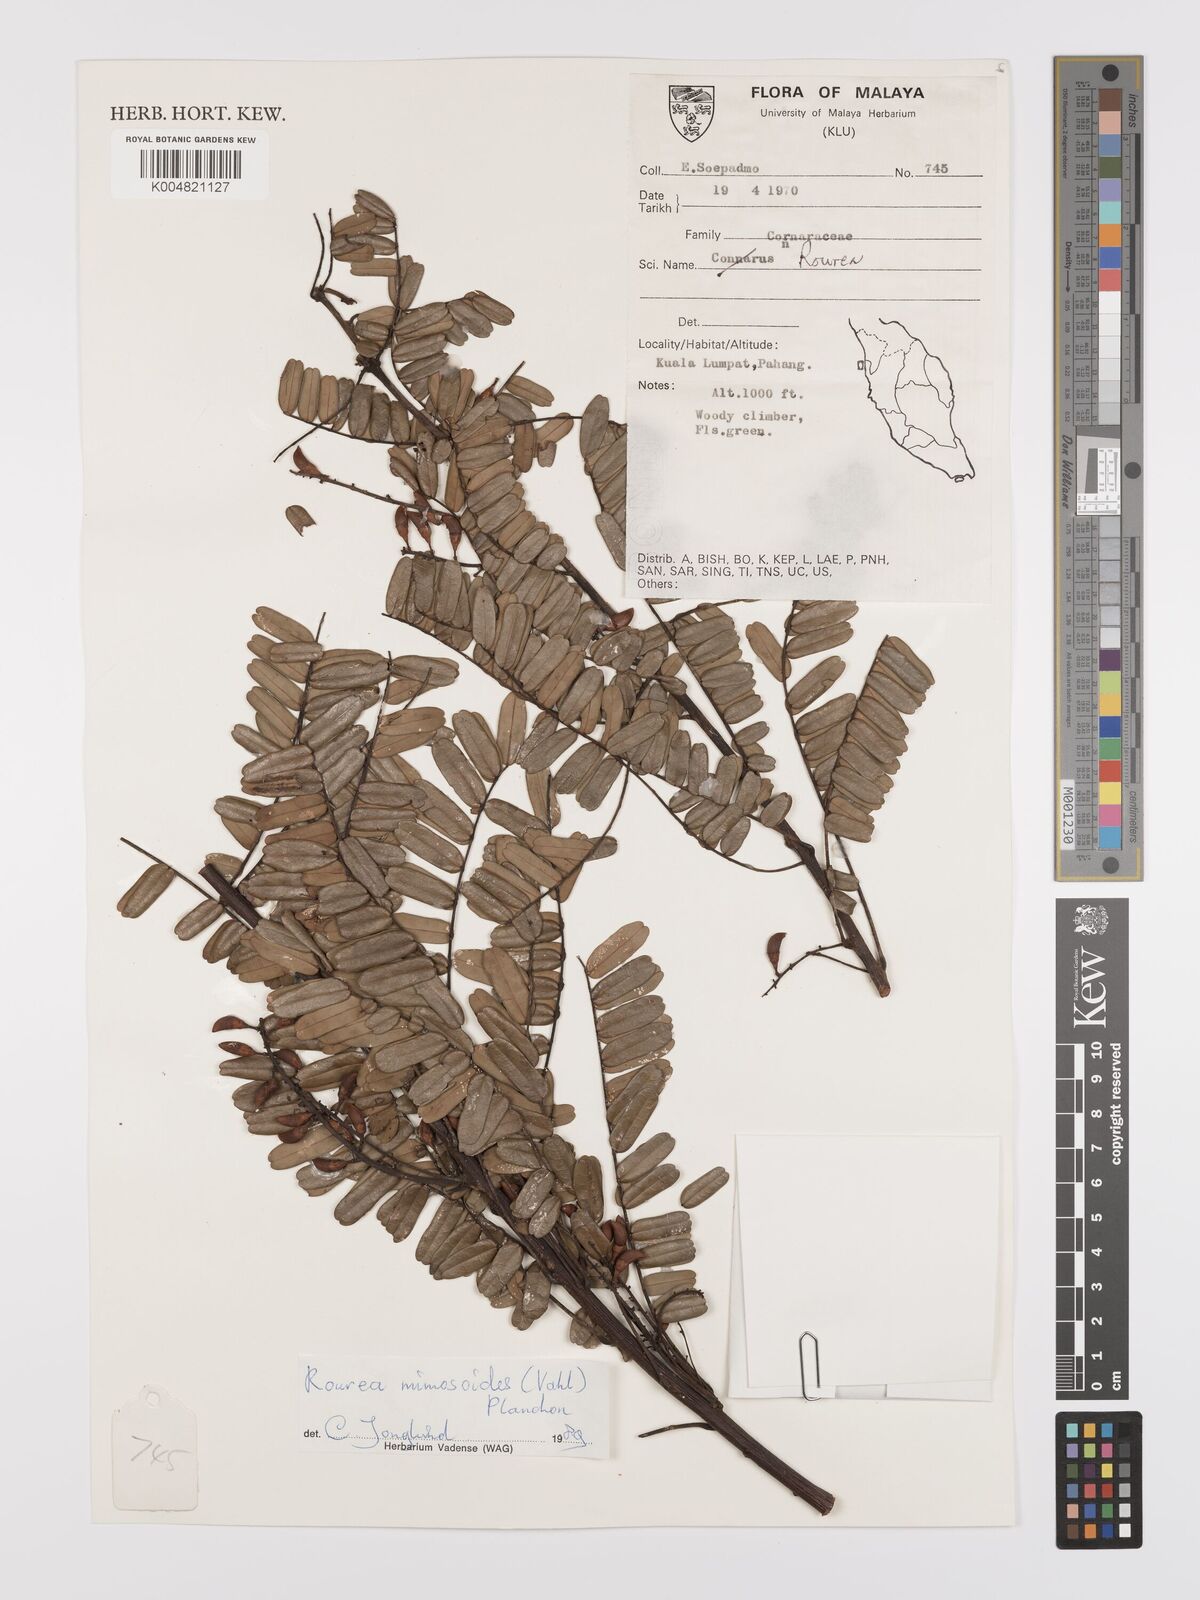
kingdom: Plantae
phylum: Tracheophyta
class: Magnoliopsida
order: Oxalidales
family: Connaraceae
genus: Rourea
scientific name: Rourea mimosoides
